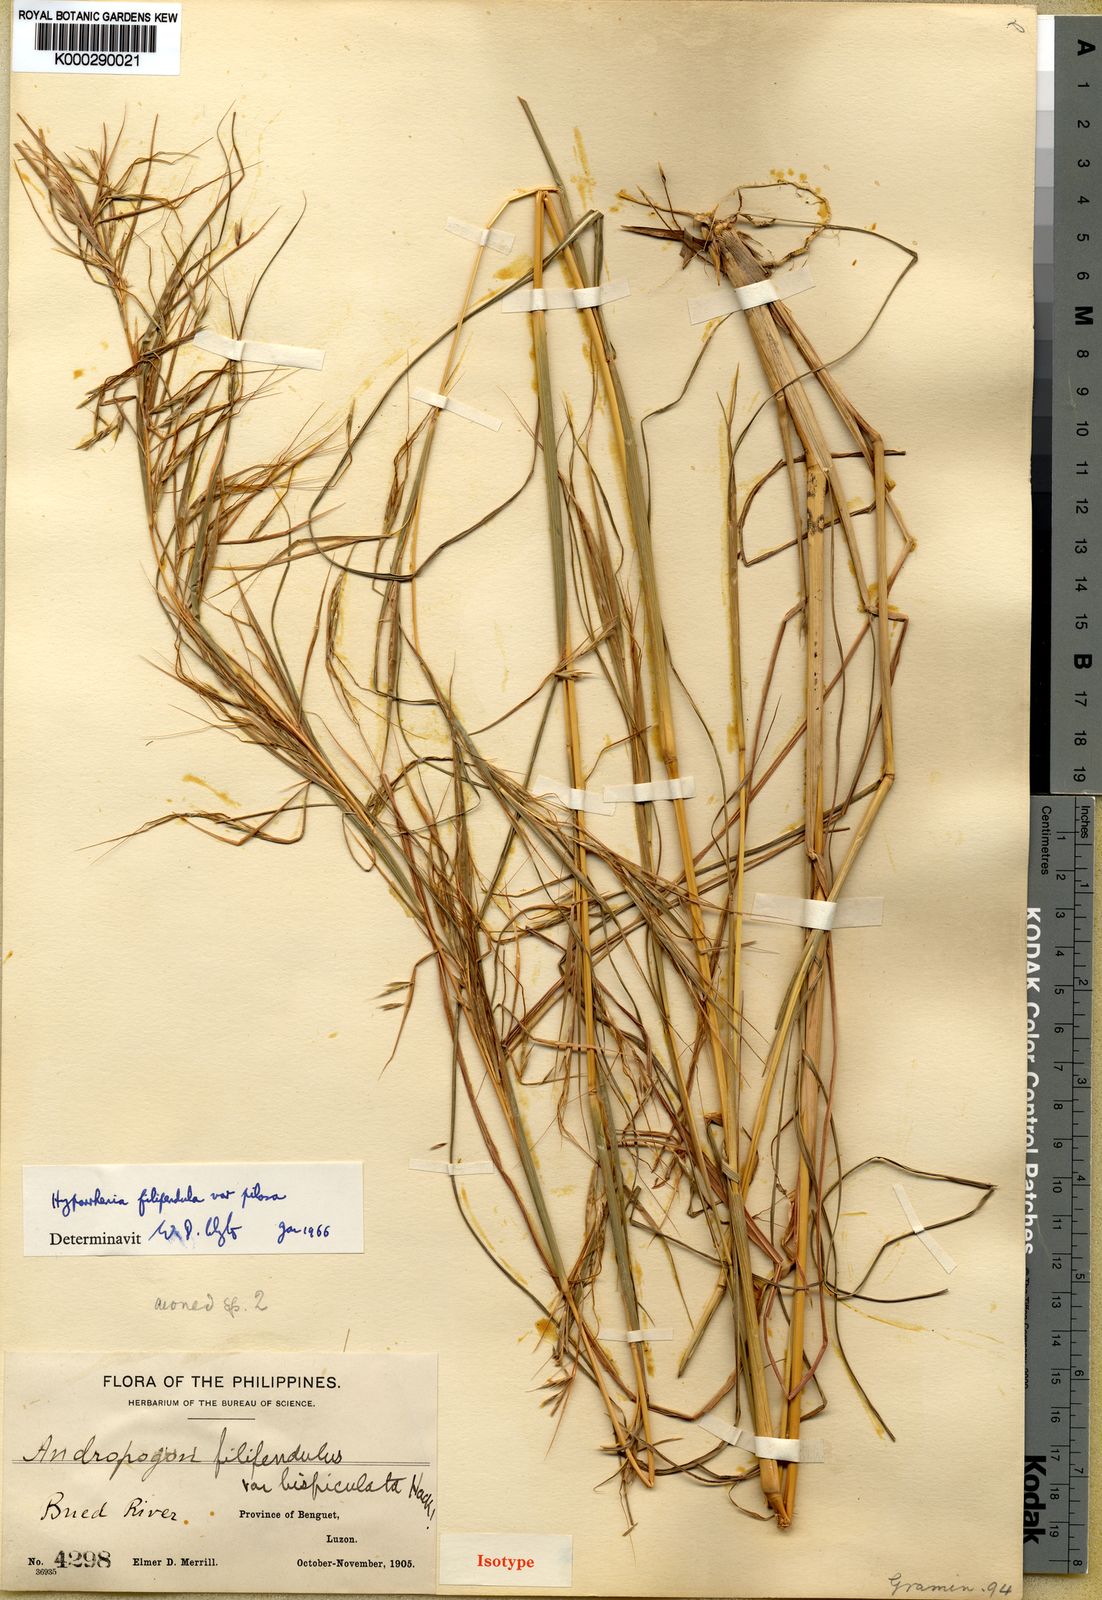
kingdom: Plantae
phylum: Tracheophyta
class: Liliopsida
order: Poales
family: Poaceae
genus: Hyparrhenia
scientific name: Hyparrhenia filipendula
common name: Tambookie grass
